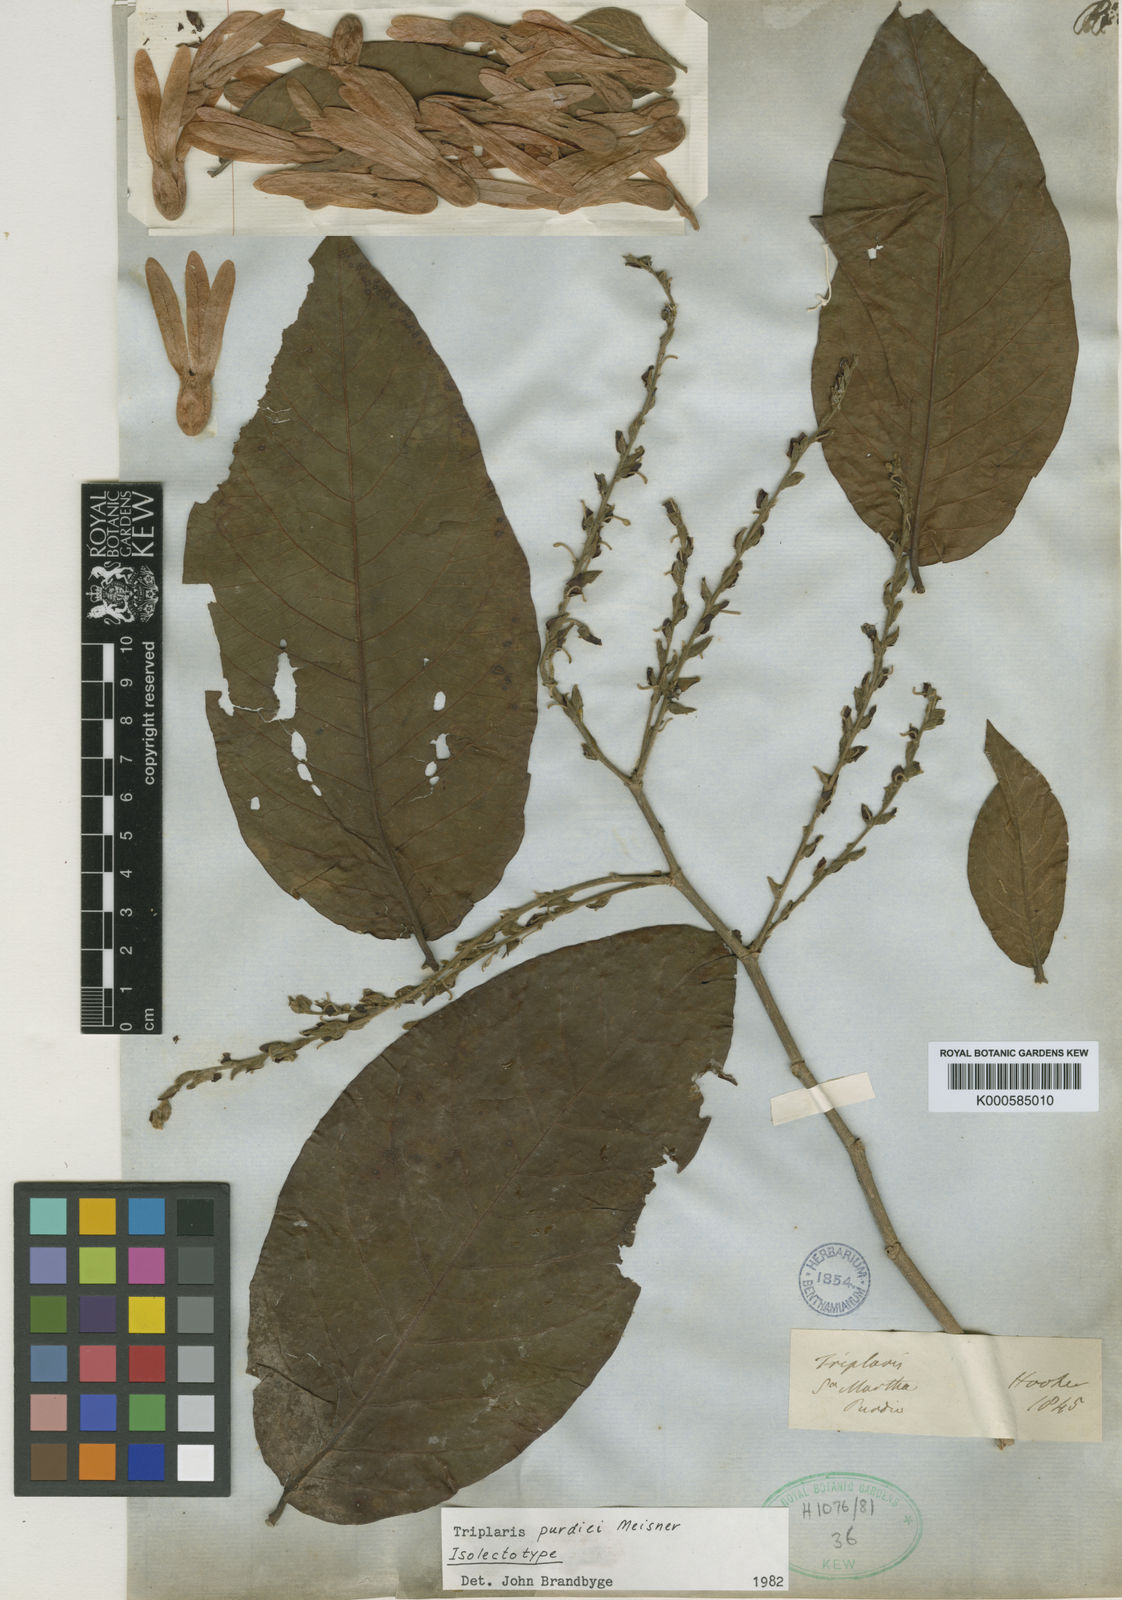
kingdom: Plantae
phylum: Tracheophyta
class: Magnoliopsida
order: Caryophyllales
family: Polygonaceae
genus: Triplaris
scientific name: Triplaris purdiei
